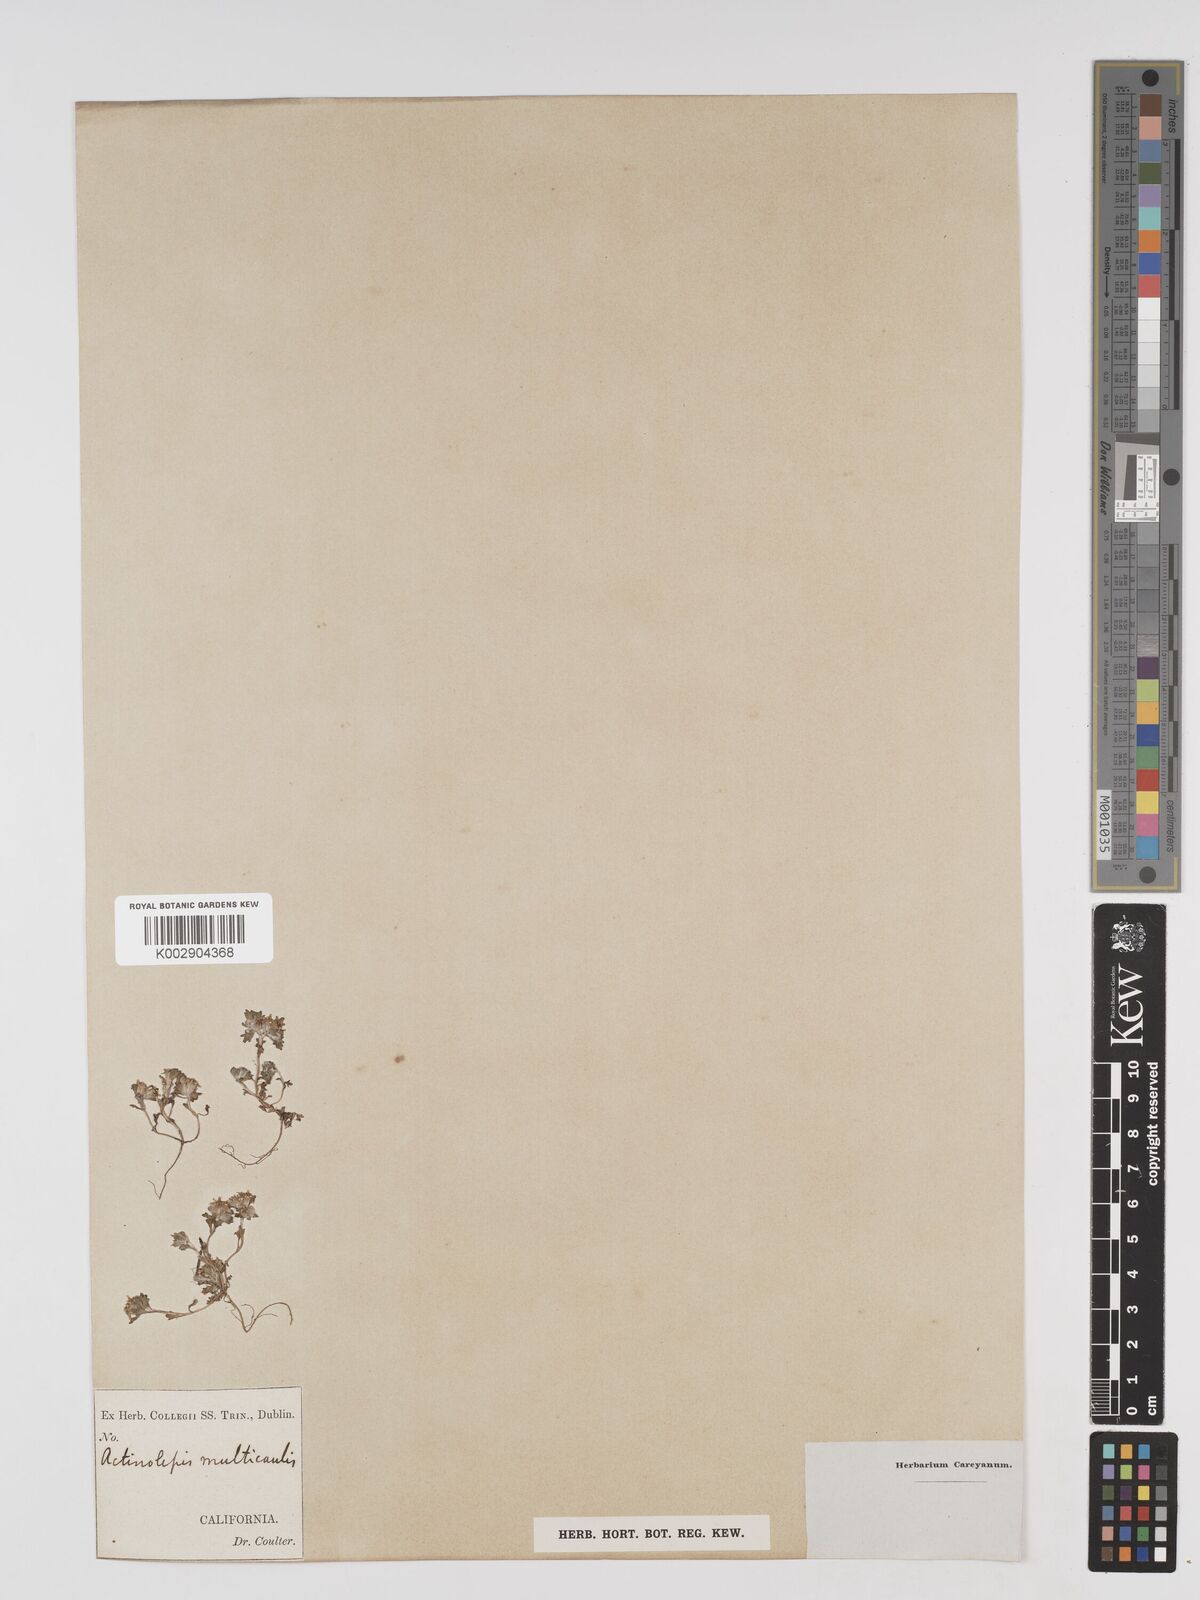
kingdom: Plantae
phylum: Tracheophyta
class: Magnoliopsida
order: Asterales
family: Asteraceae
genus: Eriophyllum
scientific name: Eriophyllum multicaule
